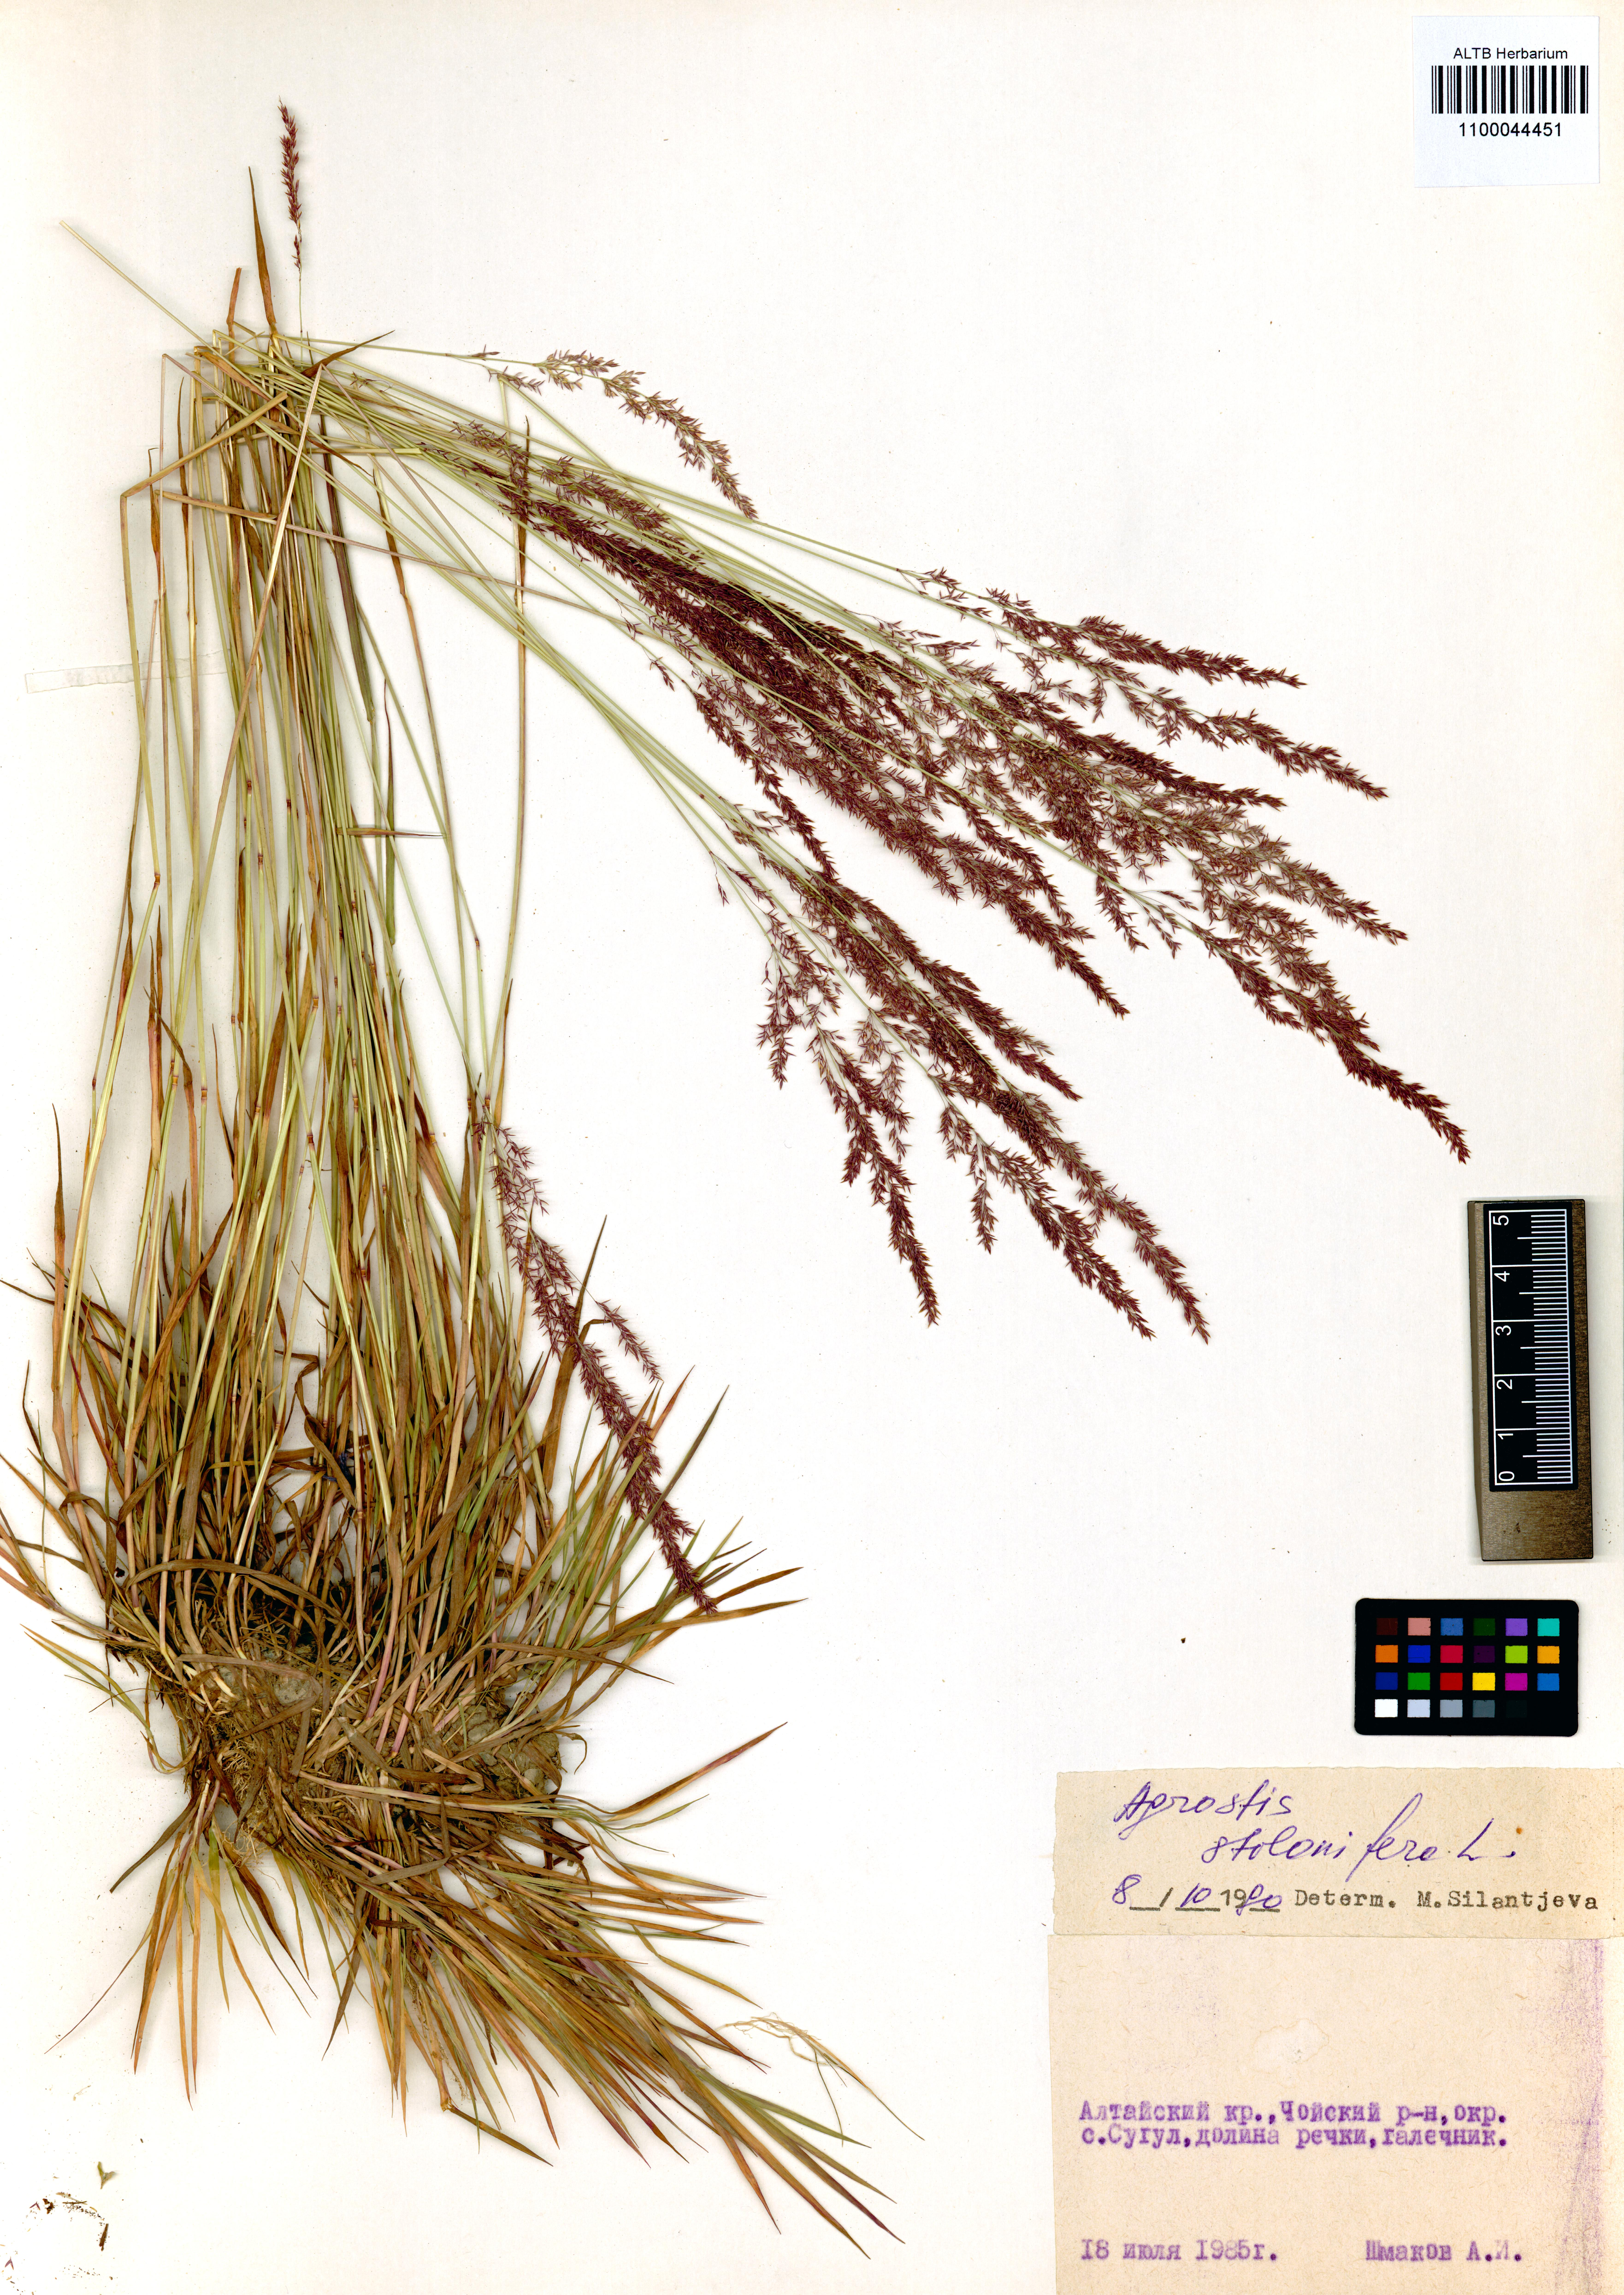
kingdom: Plantae
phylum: Tracheophyta
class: Liliopsida
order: Poales
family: Poaceae
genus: Agrostis
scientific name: Agrostis stolonifera
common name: Creeping bentgrass
